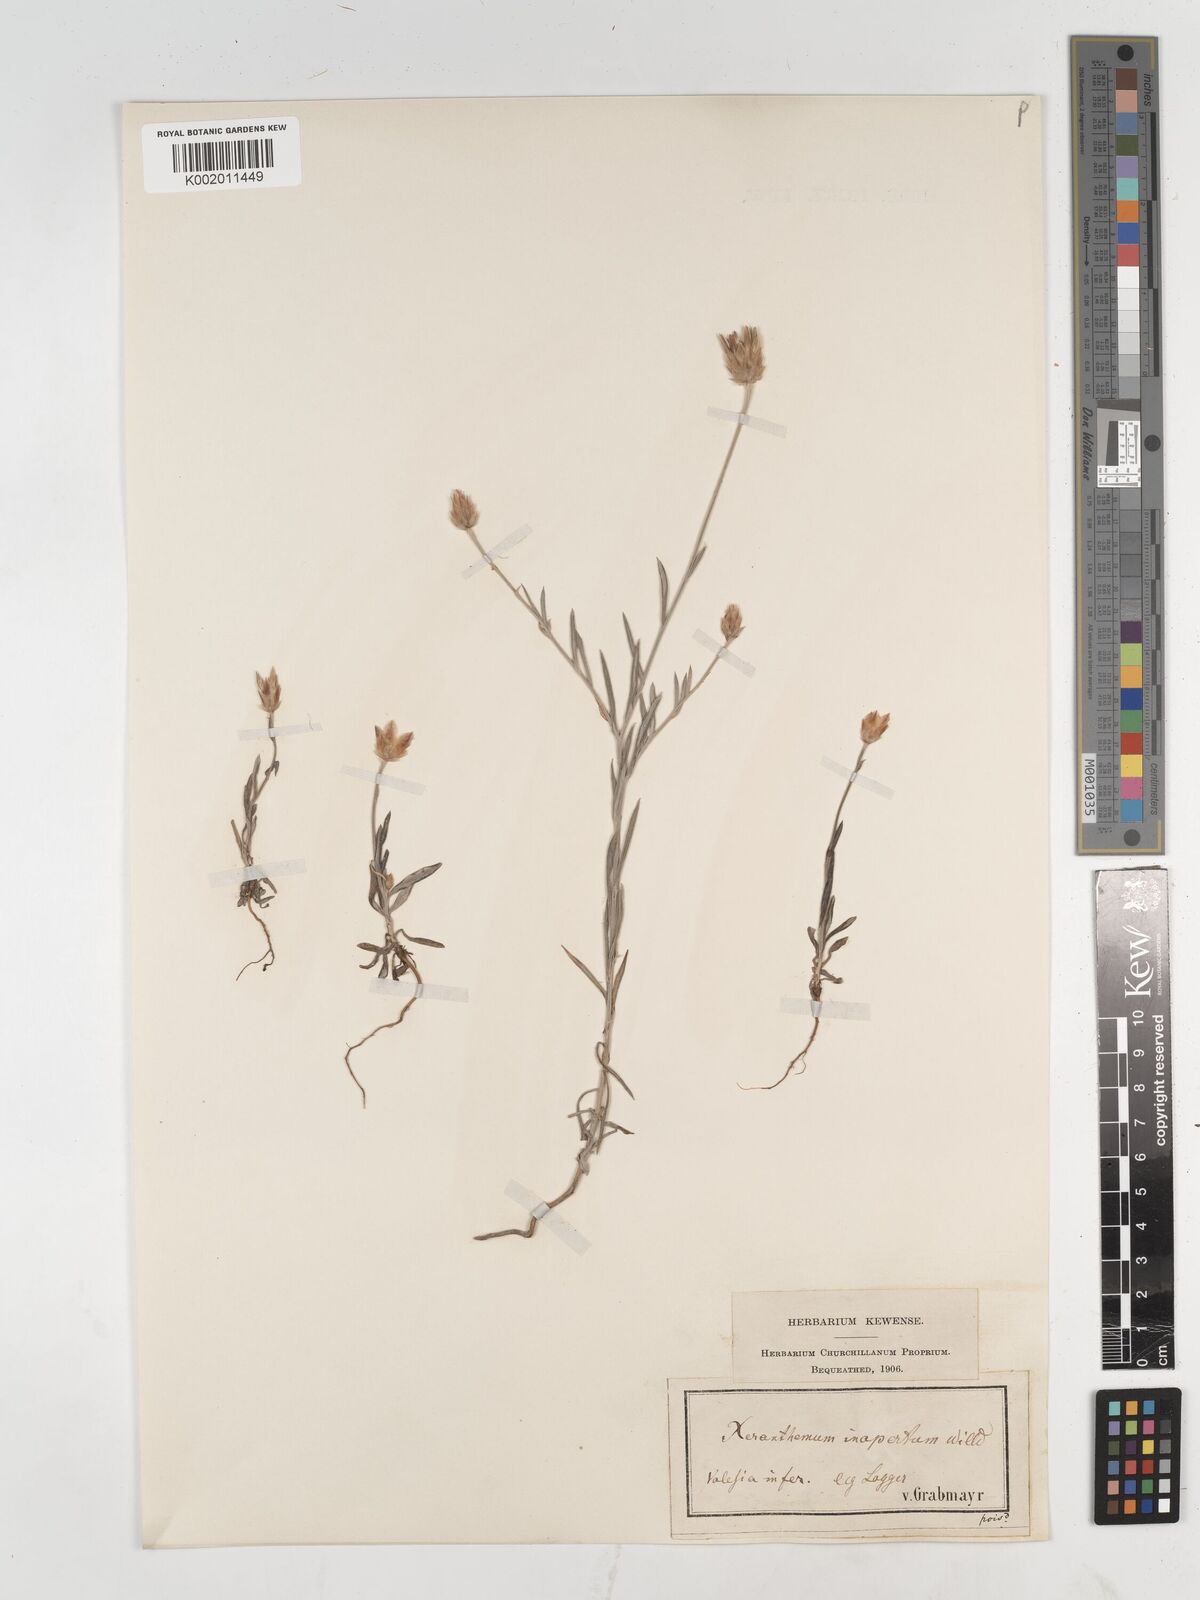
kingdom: Plantae
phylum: Tracheophyta
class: Magnoliopsida
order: Asterales
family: Asteraceae
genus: Xeranthemum
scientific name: Xeranthemum inapertum
